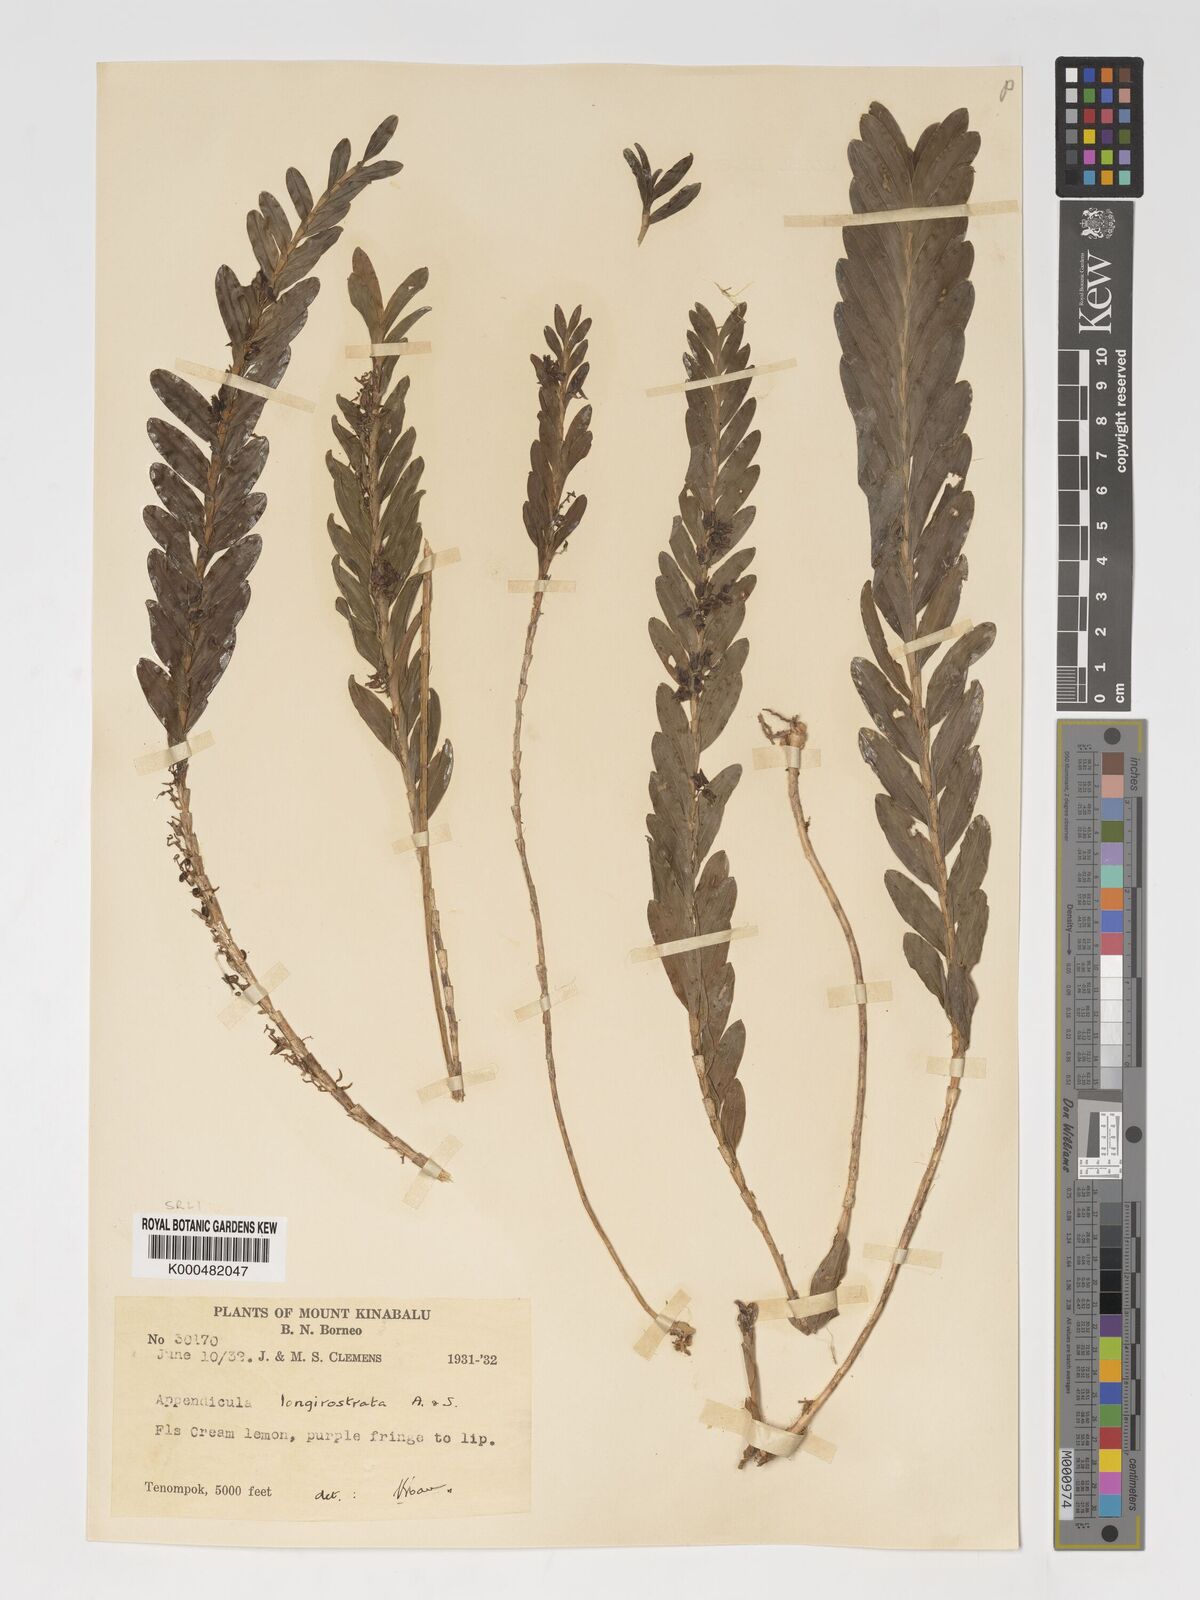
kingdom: Plantae
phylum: Tracheophyta
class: Liliopsida
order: Asparagales
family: Orchidaceae
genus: Appendicula
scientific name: Appendicula longirostrata
